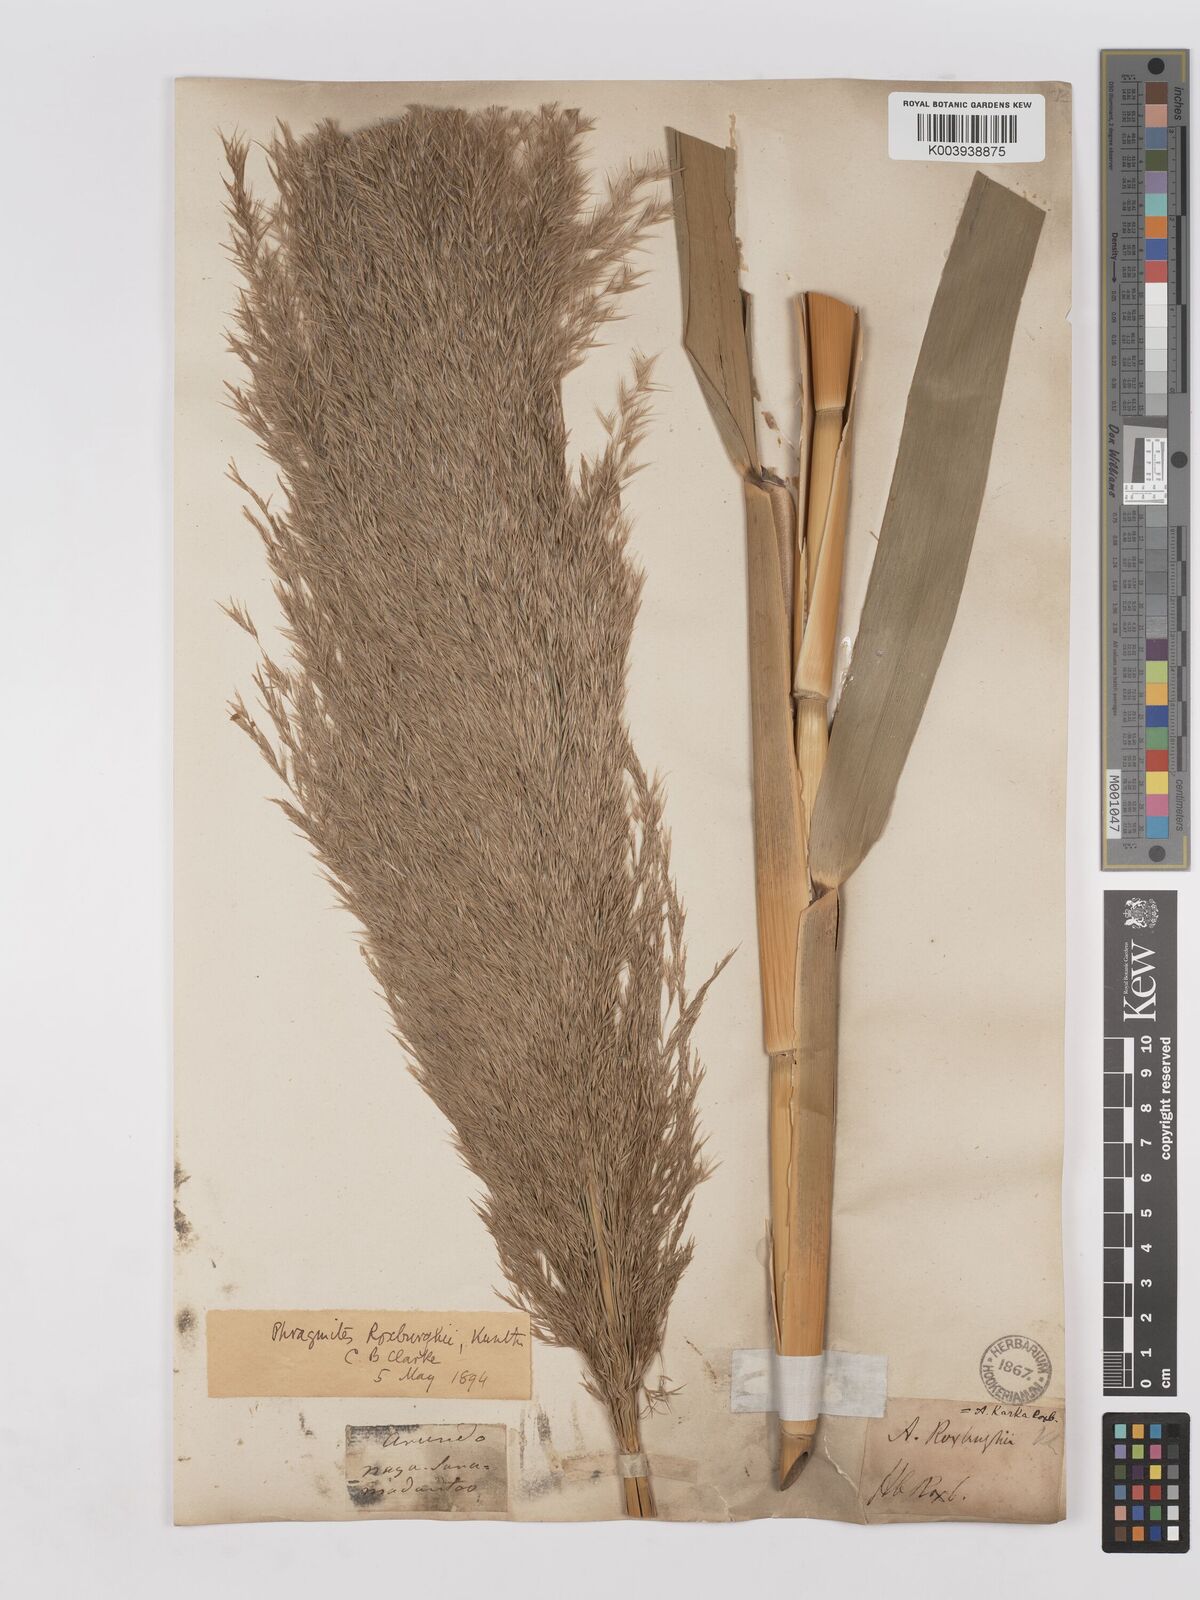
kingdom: Plantae
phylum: Tracheophyta
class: Liliopsida
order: Poales
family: Poaceae
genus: Phragmites
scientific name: Phragmites karka
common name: Tropical reed
